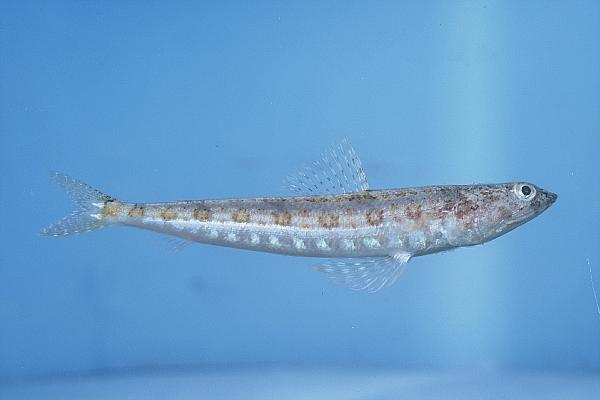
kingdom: Animalia
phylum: Chordata
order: Aulopiformes
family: Synodontidae
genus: Synodus
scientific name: Synodus variegatus
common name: Variegated lizardfish
